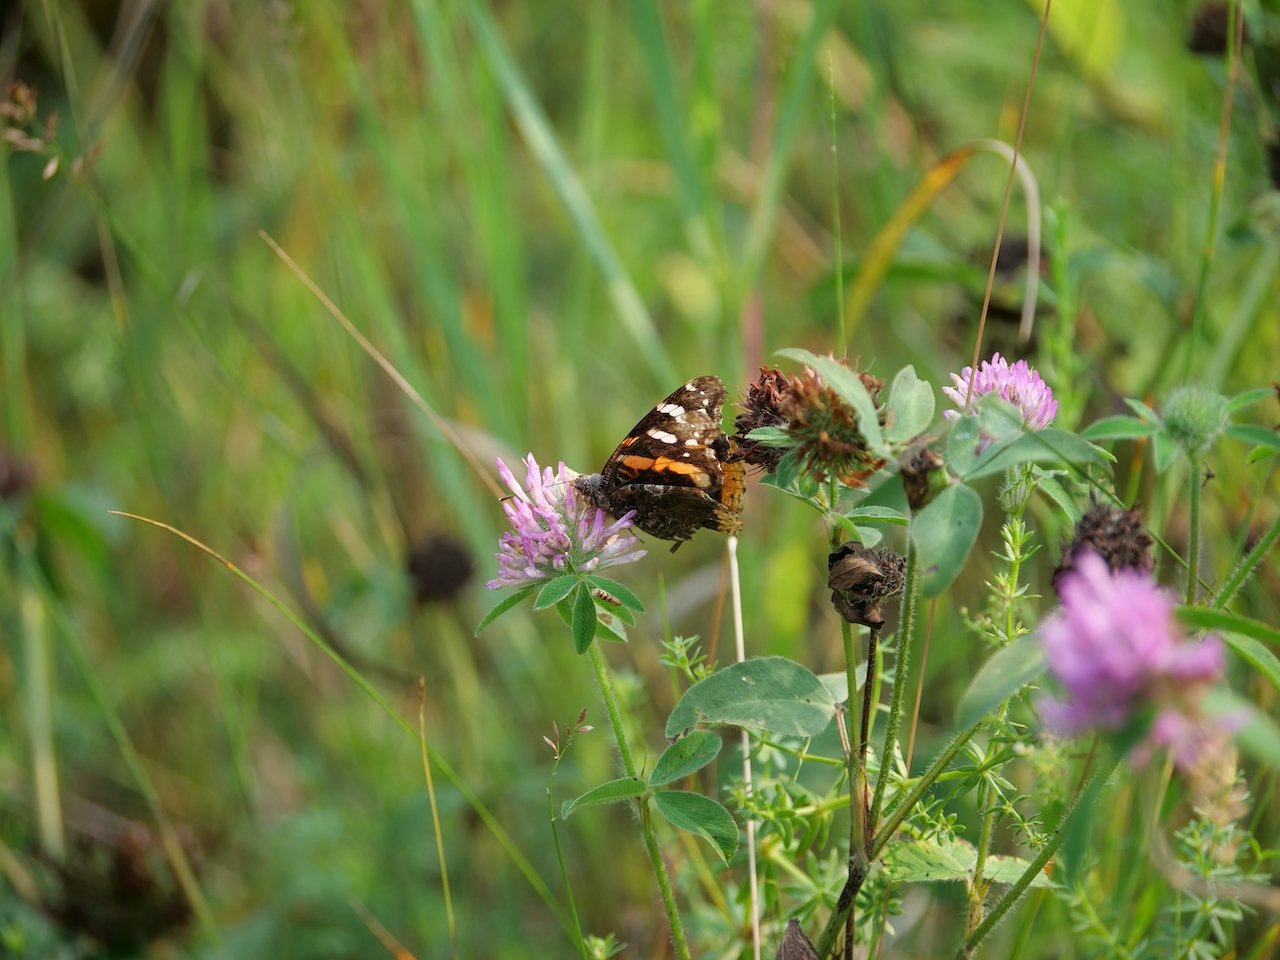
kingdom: Animalia
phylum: Arthropoda
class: Insecta
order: Lepidoptera
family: Nymphalidae
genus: Vanessa
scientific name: Vanessa atalanta
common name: Red Admiral
